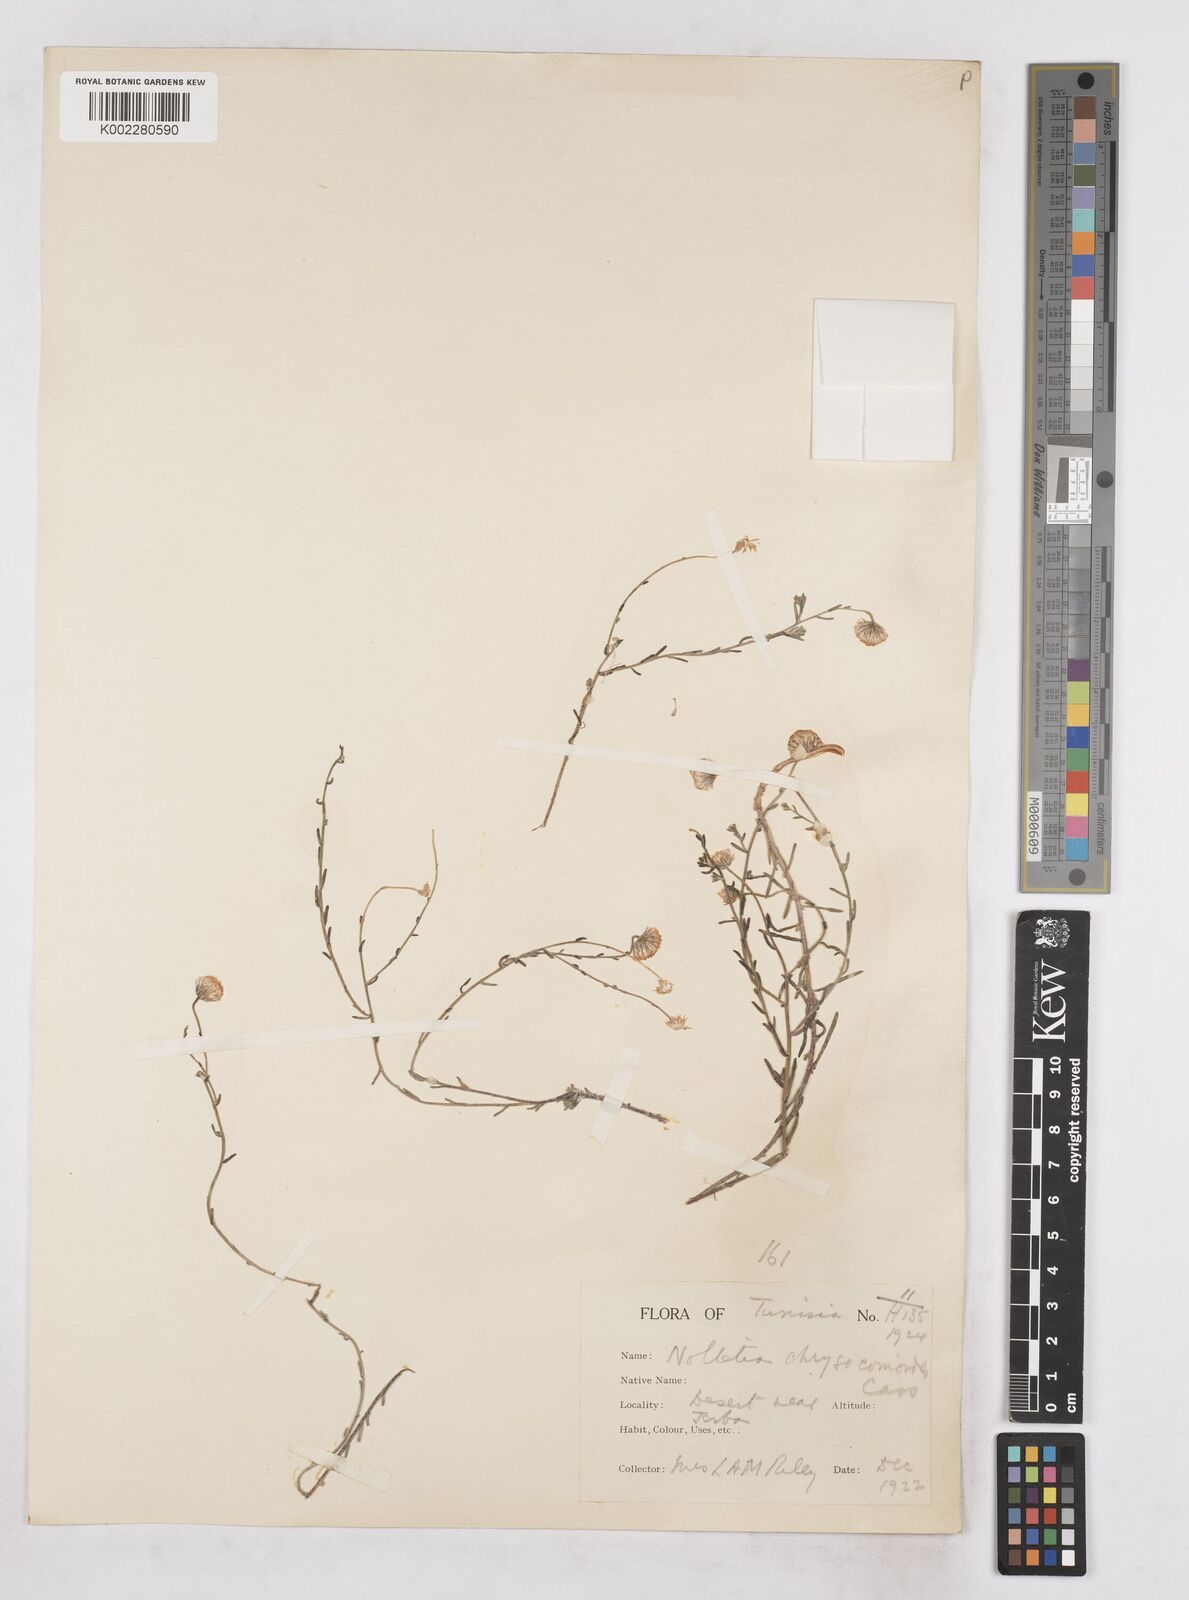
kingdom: Plantae
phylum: Tracheophyta
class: Magnoliopsida
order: Asterales
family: Asteraceae
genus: Nolletia
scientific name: Nolletia chrysocomoides
